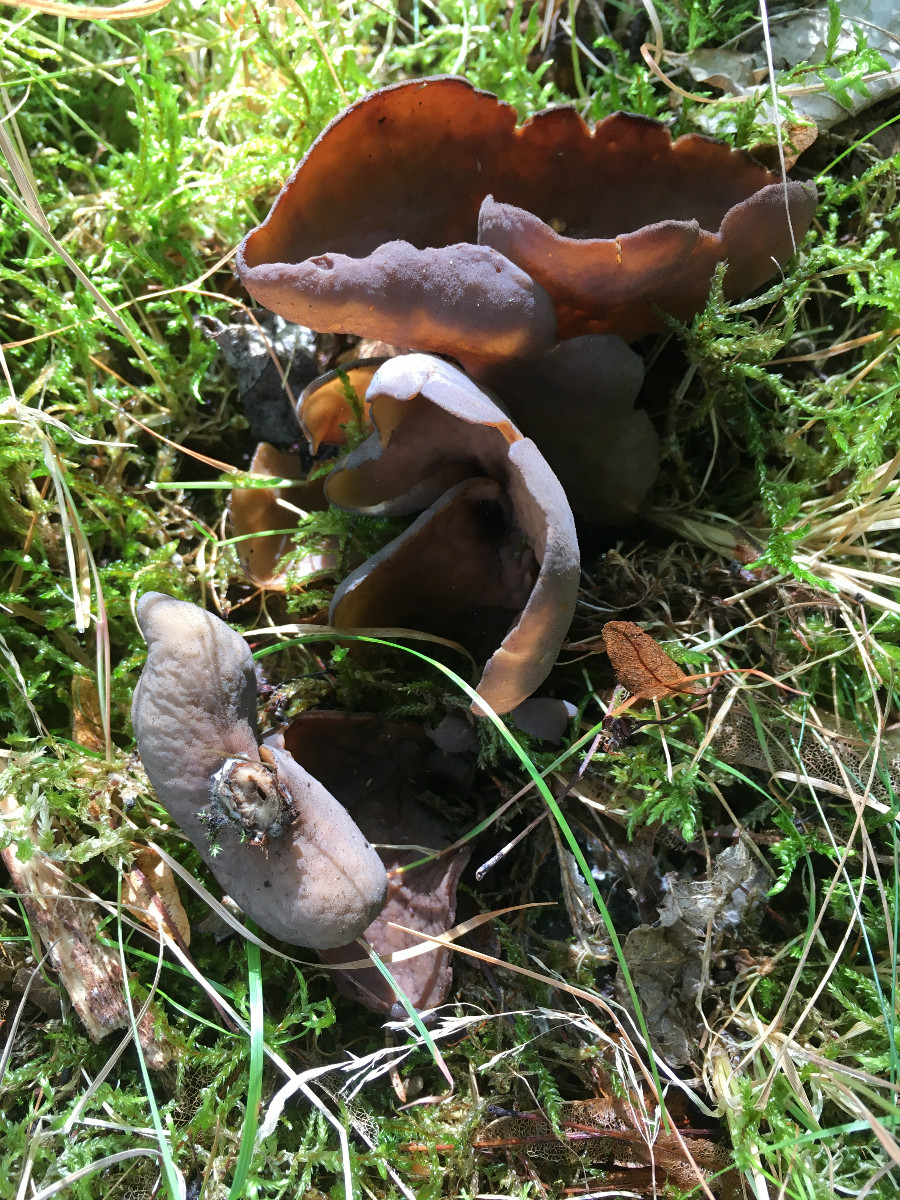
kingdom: Fungi
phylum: Ascomycota
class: Pezizomycetes
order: Pezizales
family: Otideaceae
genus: Otidea
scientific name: Otidea bufonia
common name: brun ørebæger
